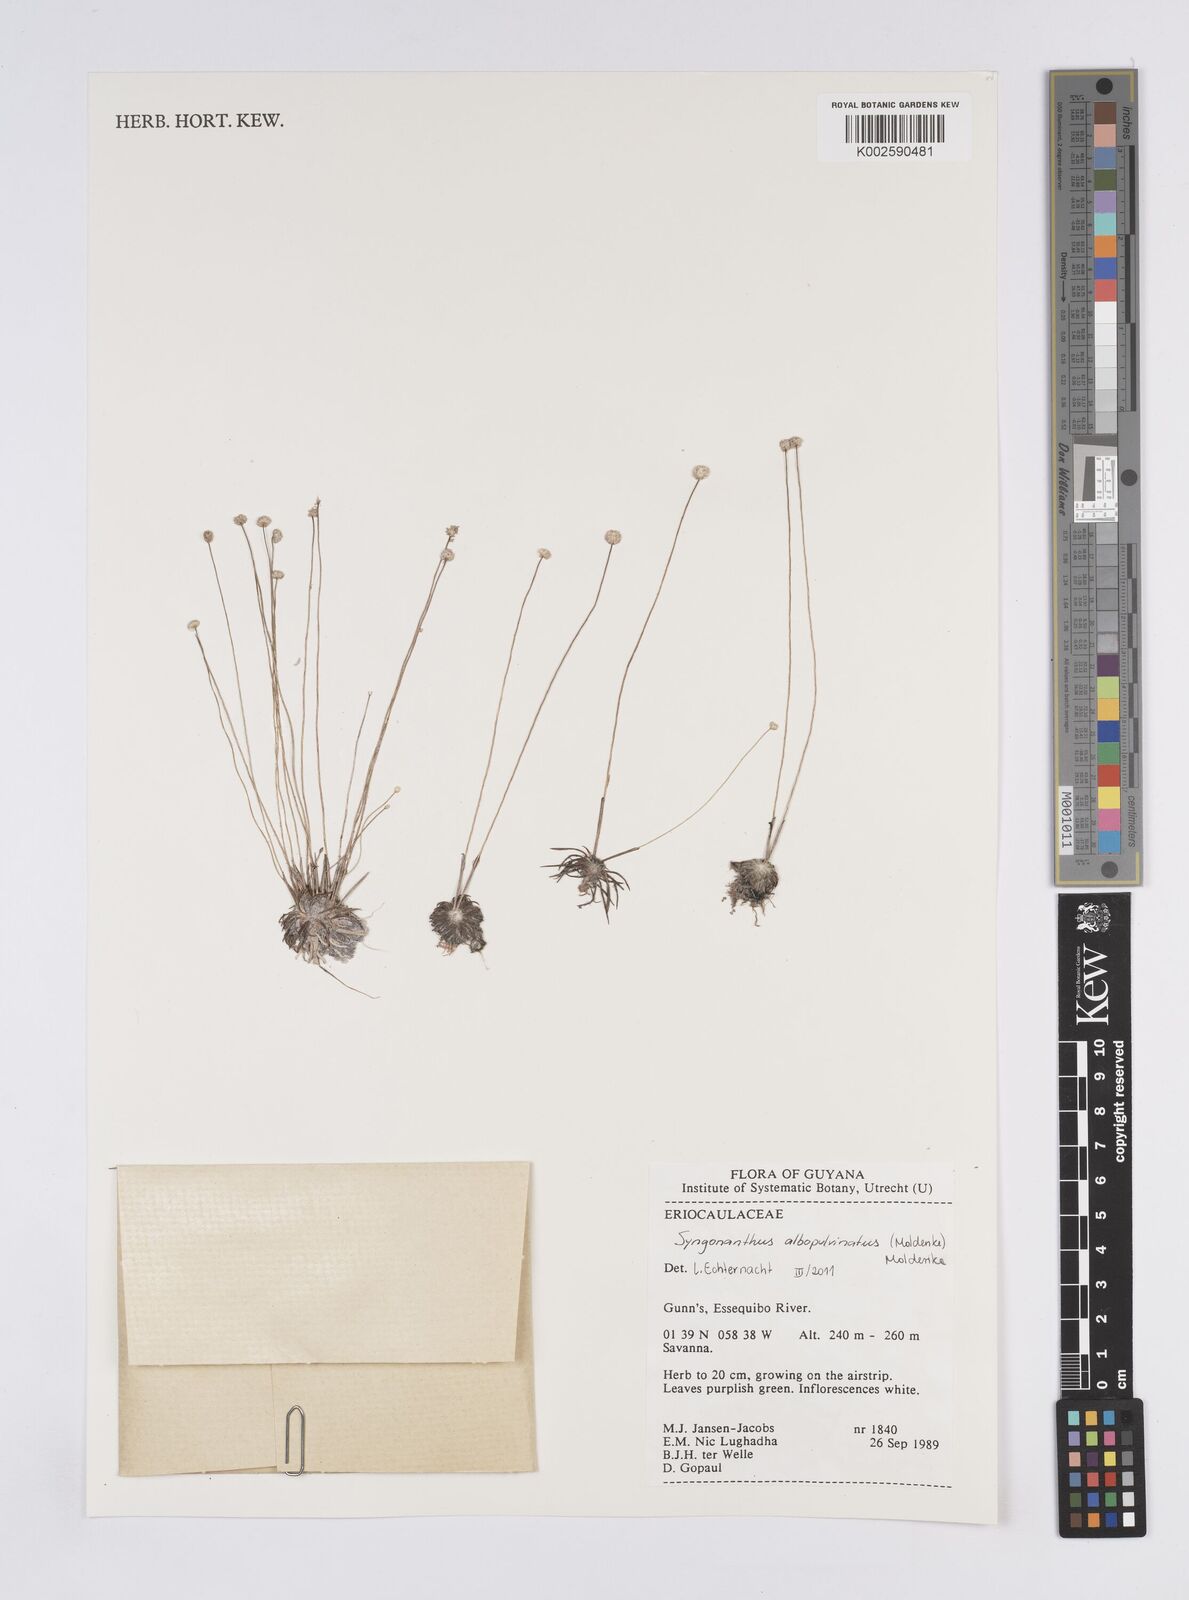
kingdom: Plantae
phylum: Tracheophyta
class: Liliopsida
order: Poales
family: Eriocaulaceae
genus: Syngonanthus
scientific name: Syngonanthus albopulvinatus
